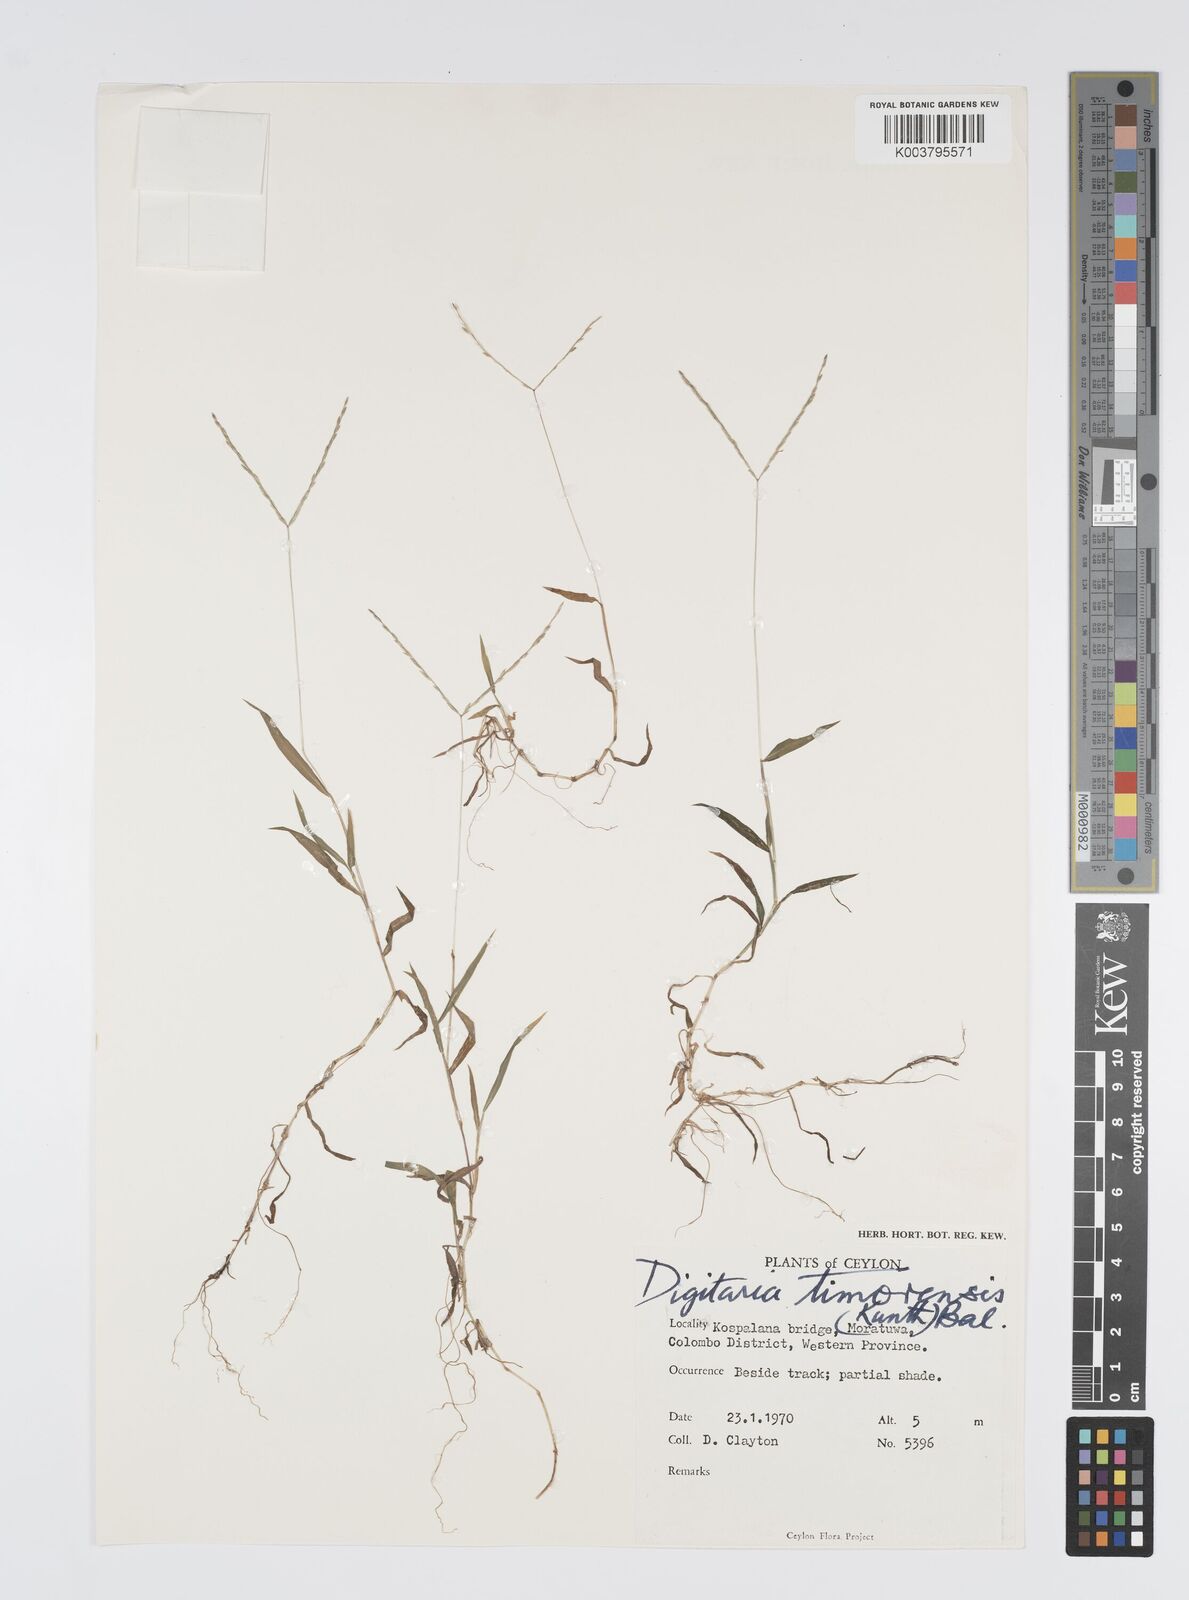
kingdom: Plantae
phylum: Tracheophyta
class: Liliopsida
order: Poales
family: Poaceae
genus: Digitaria
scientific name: Digitaria radicosa
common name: Trailing crabgrass
